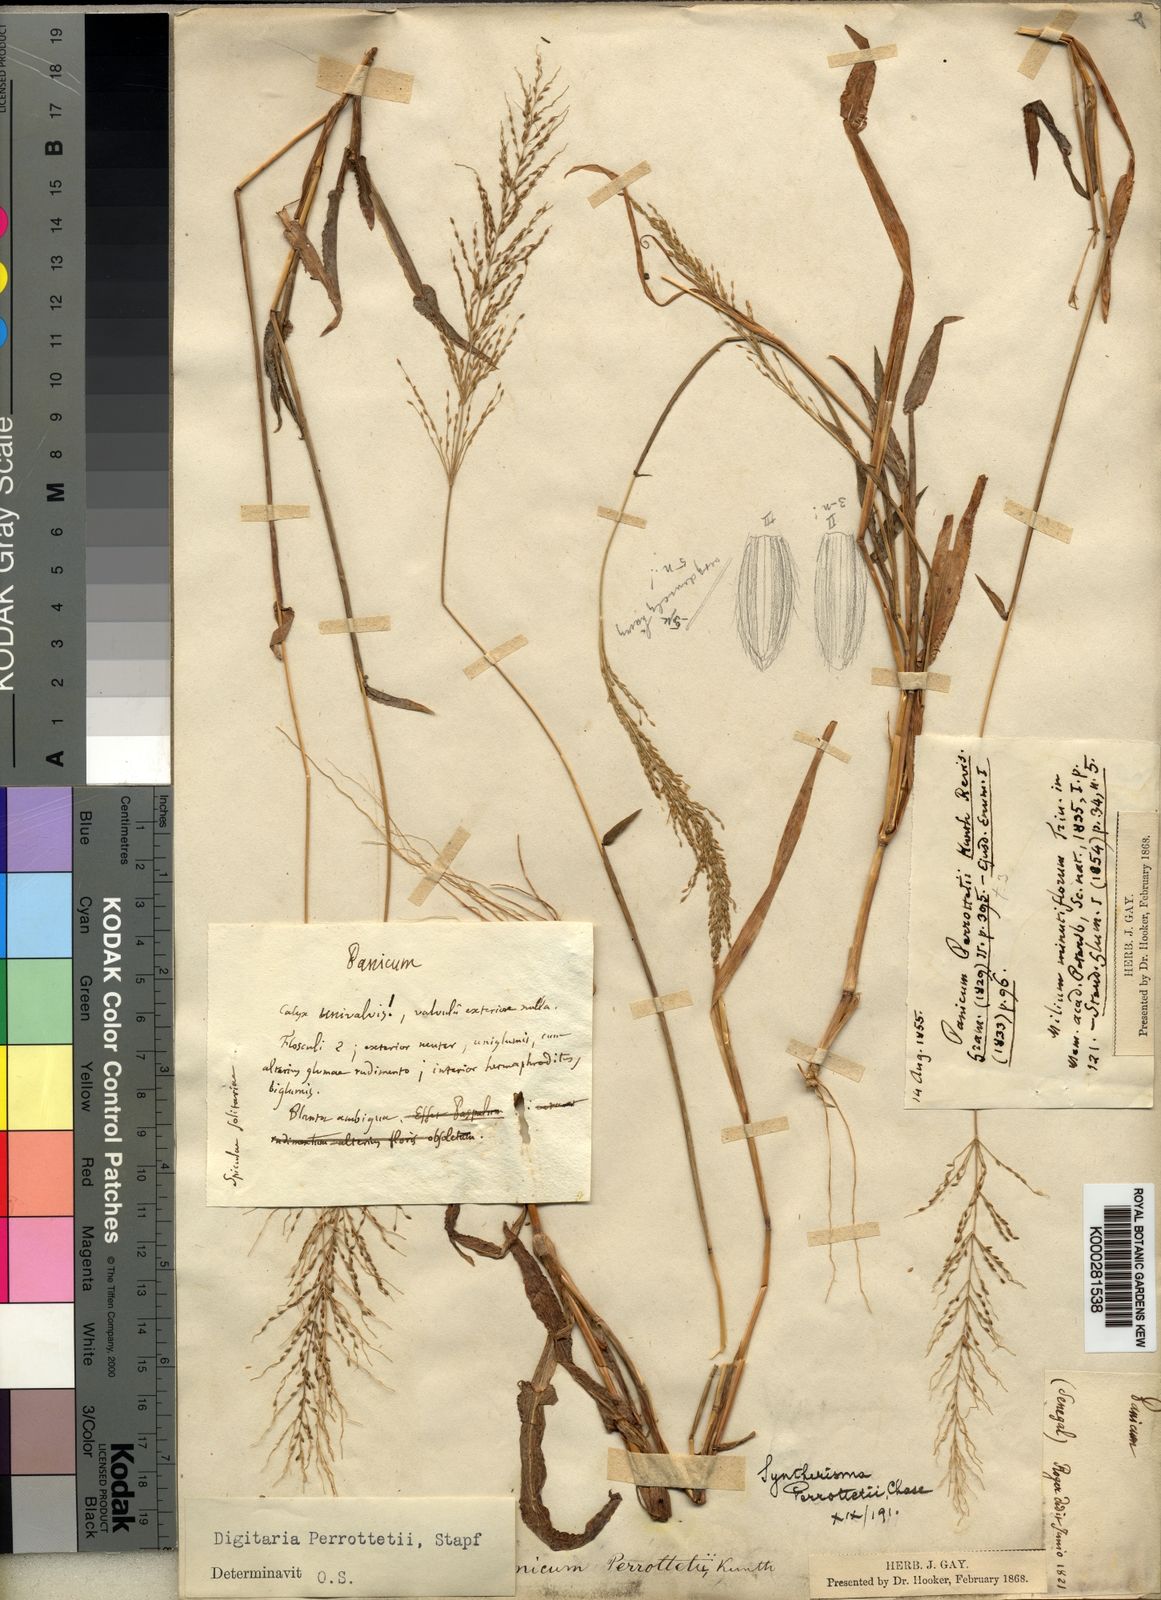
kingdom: Plantae
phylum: Tracheophyta
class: Liliopsida
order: Poales
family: Poaceae
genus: Digitaria
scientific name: Digitaria perrottetii
